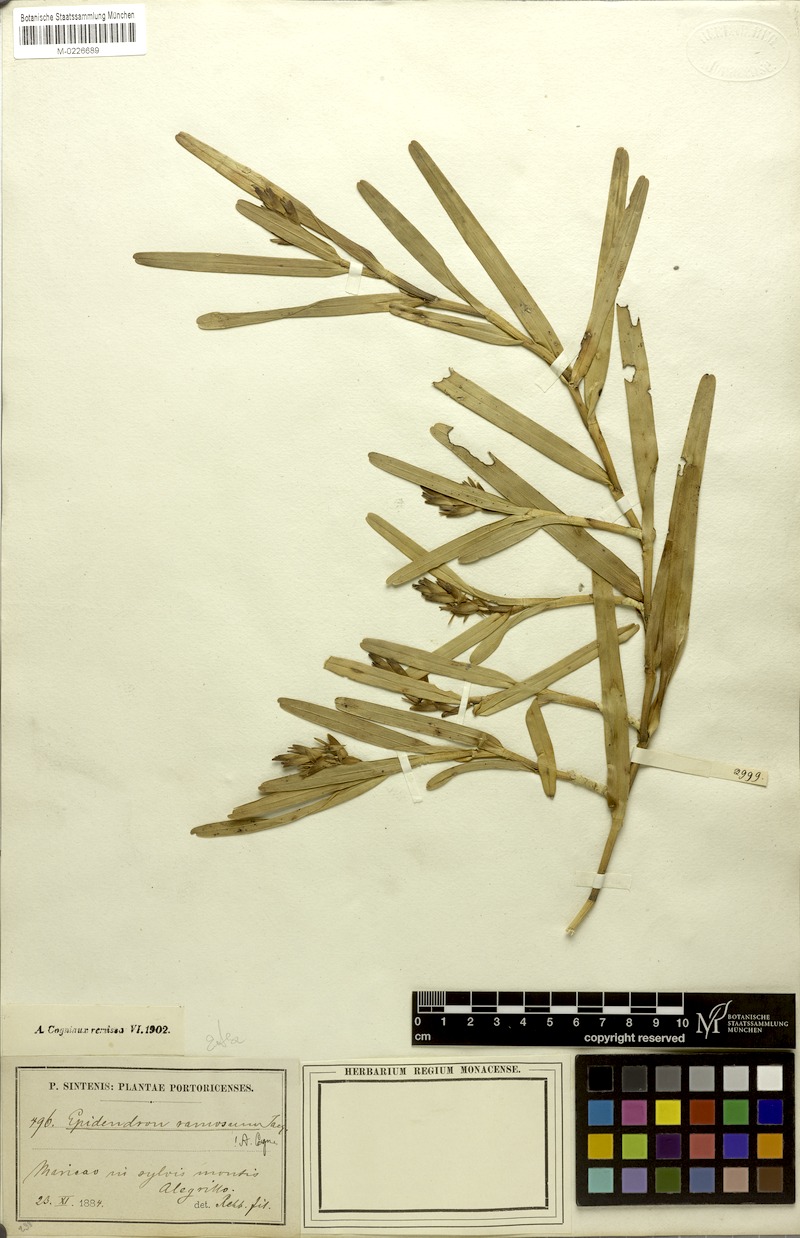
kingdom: Plantae
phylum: Tracheophyta
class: Liliopsida
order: Asparagales
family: Orchidaceae
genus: Epidendrum
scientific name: Epidendrum ramosum
